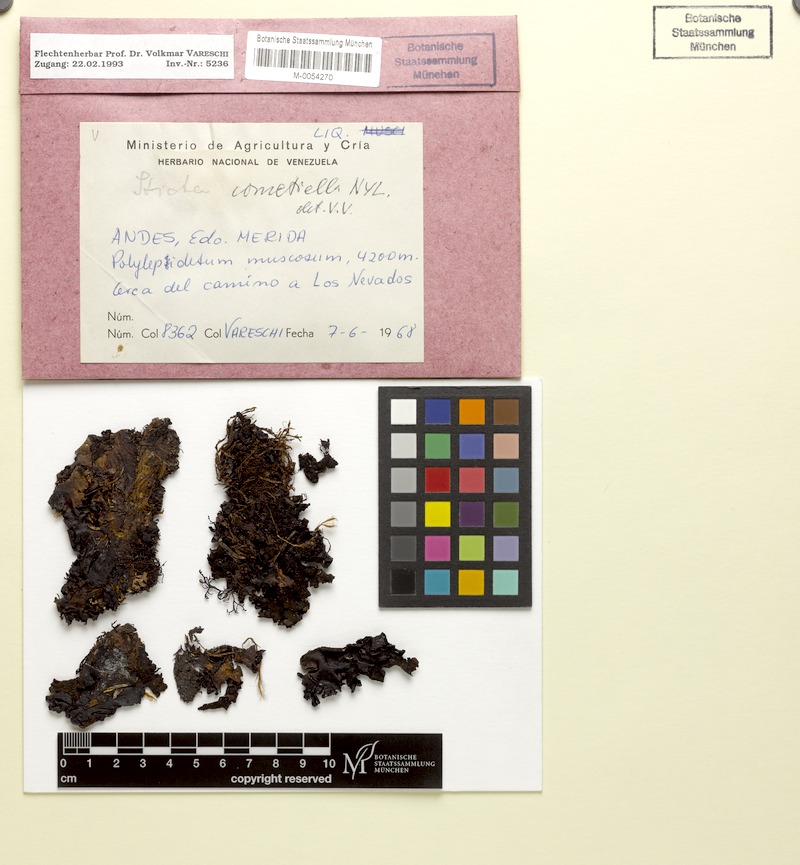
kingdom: Fungi
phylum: Ascomycota
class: Lecanoromycetes
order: Peltigerales
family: Lobariaceae
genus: Sticta
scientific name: Sticta cometiella
